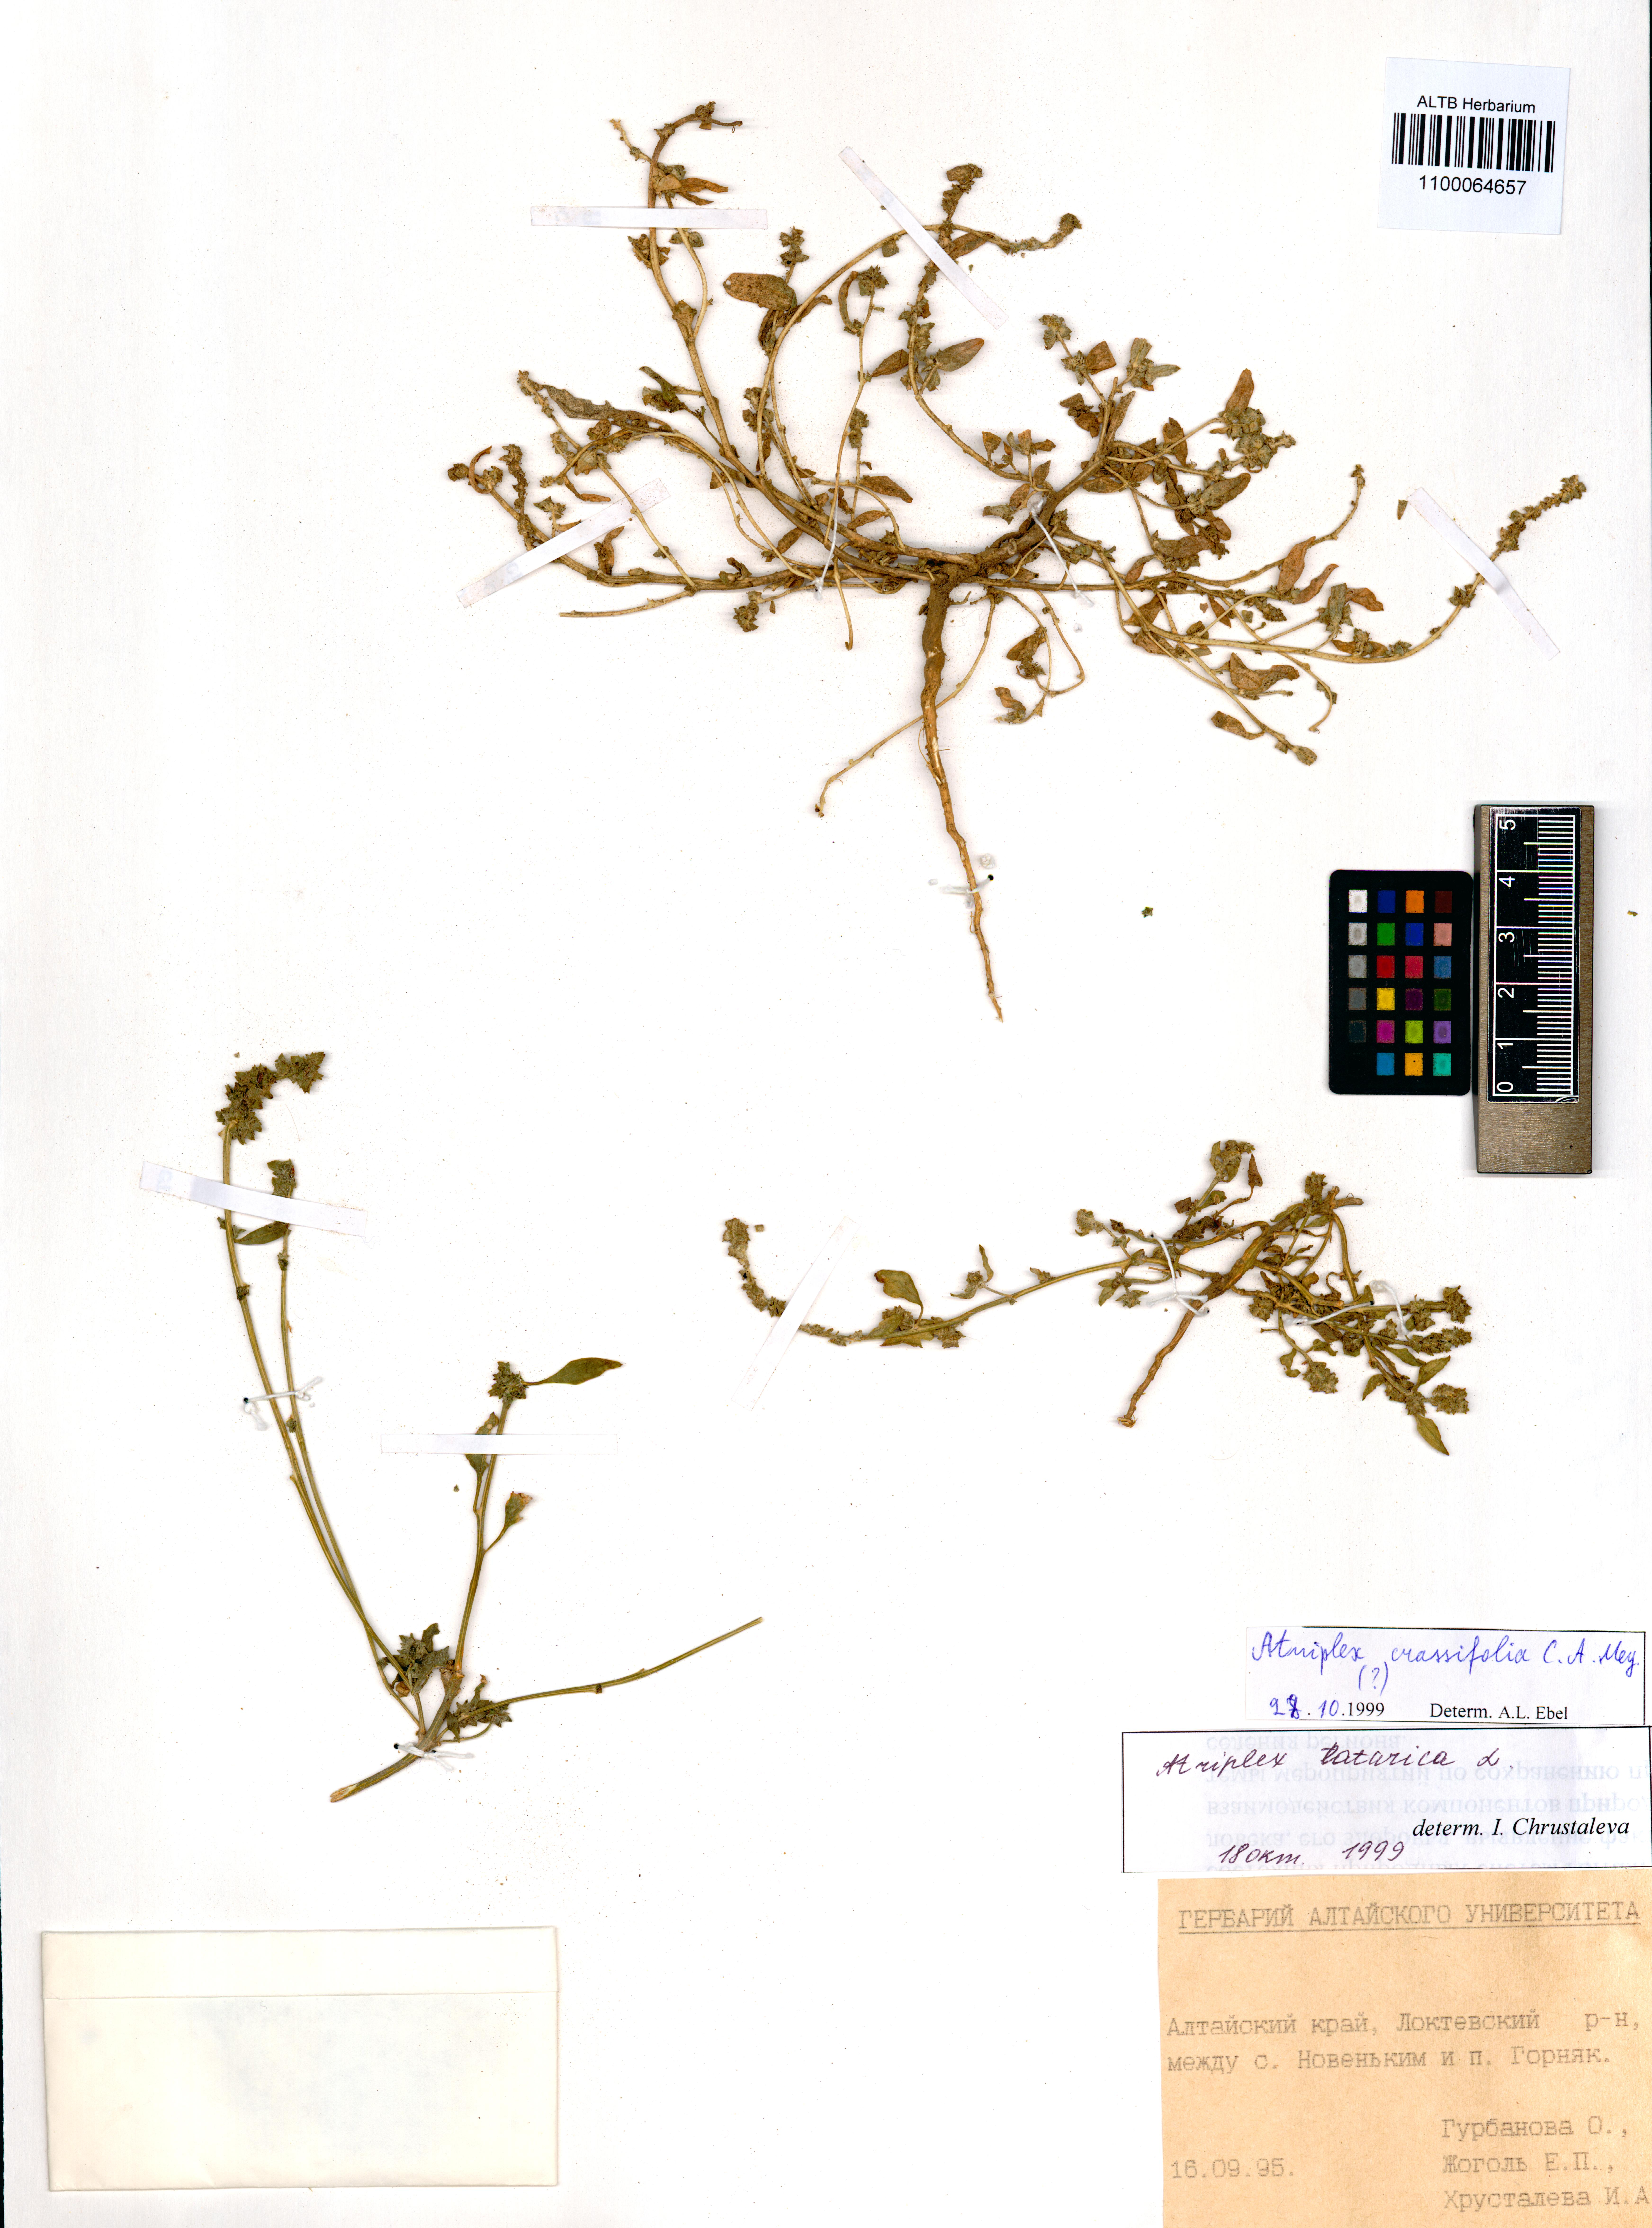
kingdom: Plantae
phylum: Tracheophyta
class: Magnoliopsida
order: Caryophyllales
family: Amaranthaceae
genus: Atriplex
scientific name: Atriplex crassifolia
